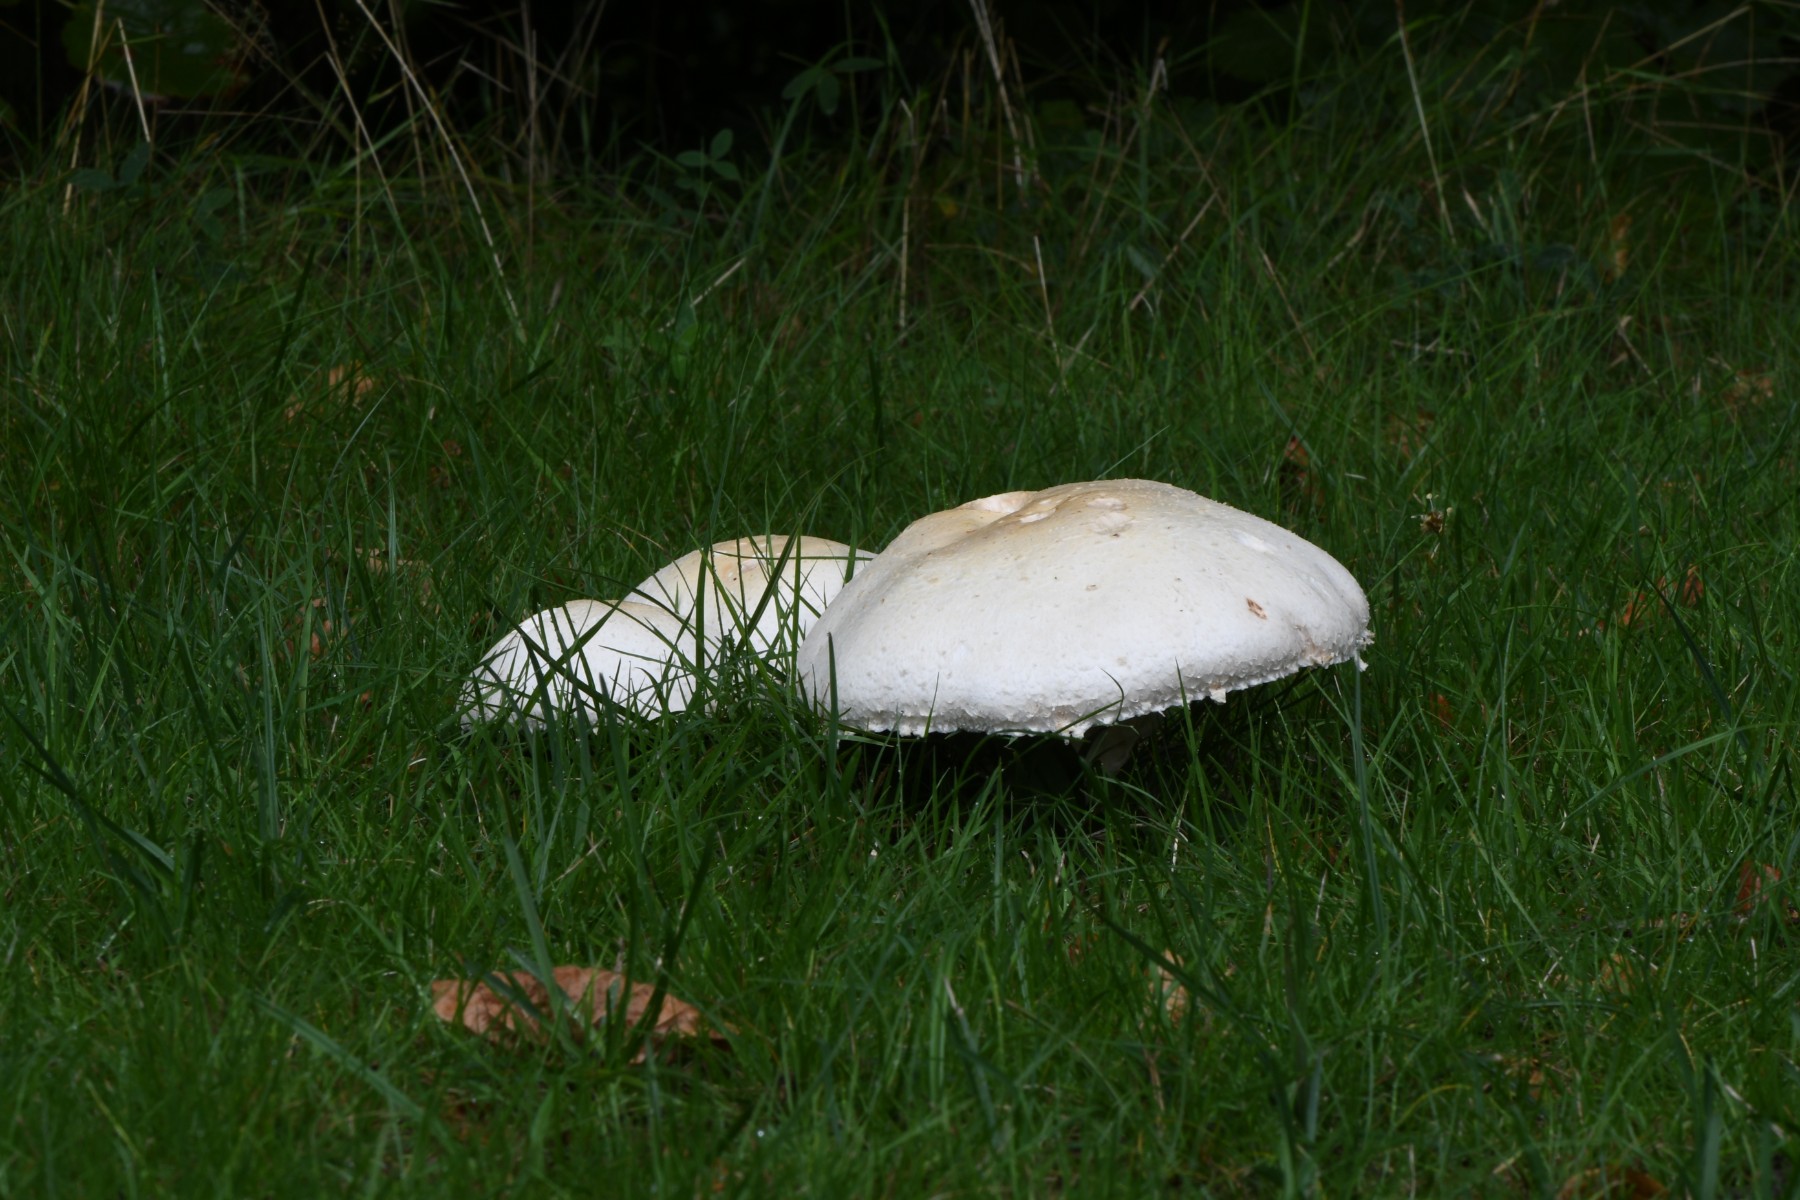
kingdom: Fungi
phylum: Basidiomycota
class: Agaricomycetes
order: Agaricales
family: Agaricaceae
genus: Agaricus
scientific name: Agaricus arvensis
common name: ager-champignon
